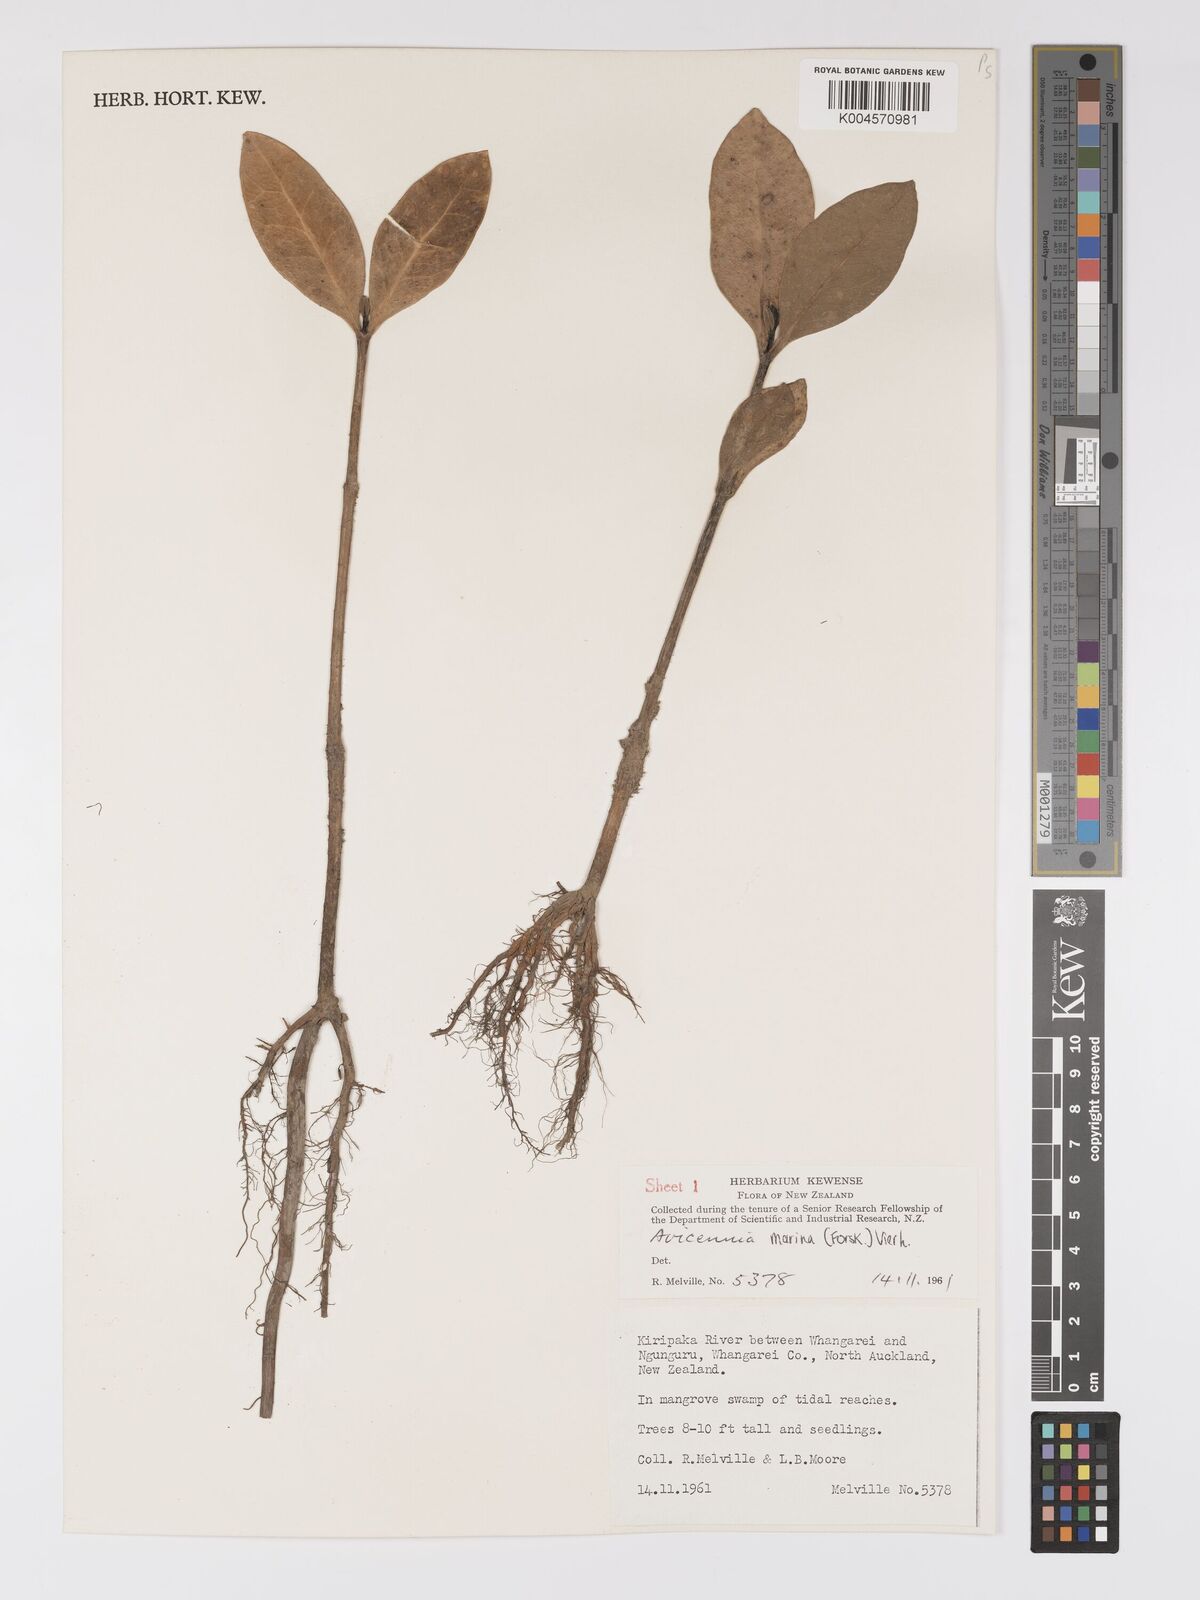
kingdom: Plantae
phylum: Tracheophyta
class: Magnoliopsida
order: Lamiales
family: Acanthaceae
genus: Avicennia
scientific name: Avicennia marina
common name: Gray mangrove
